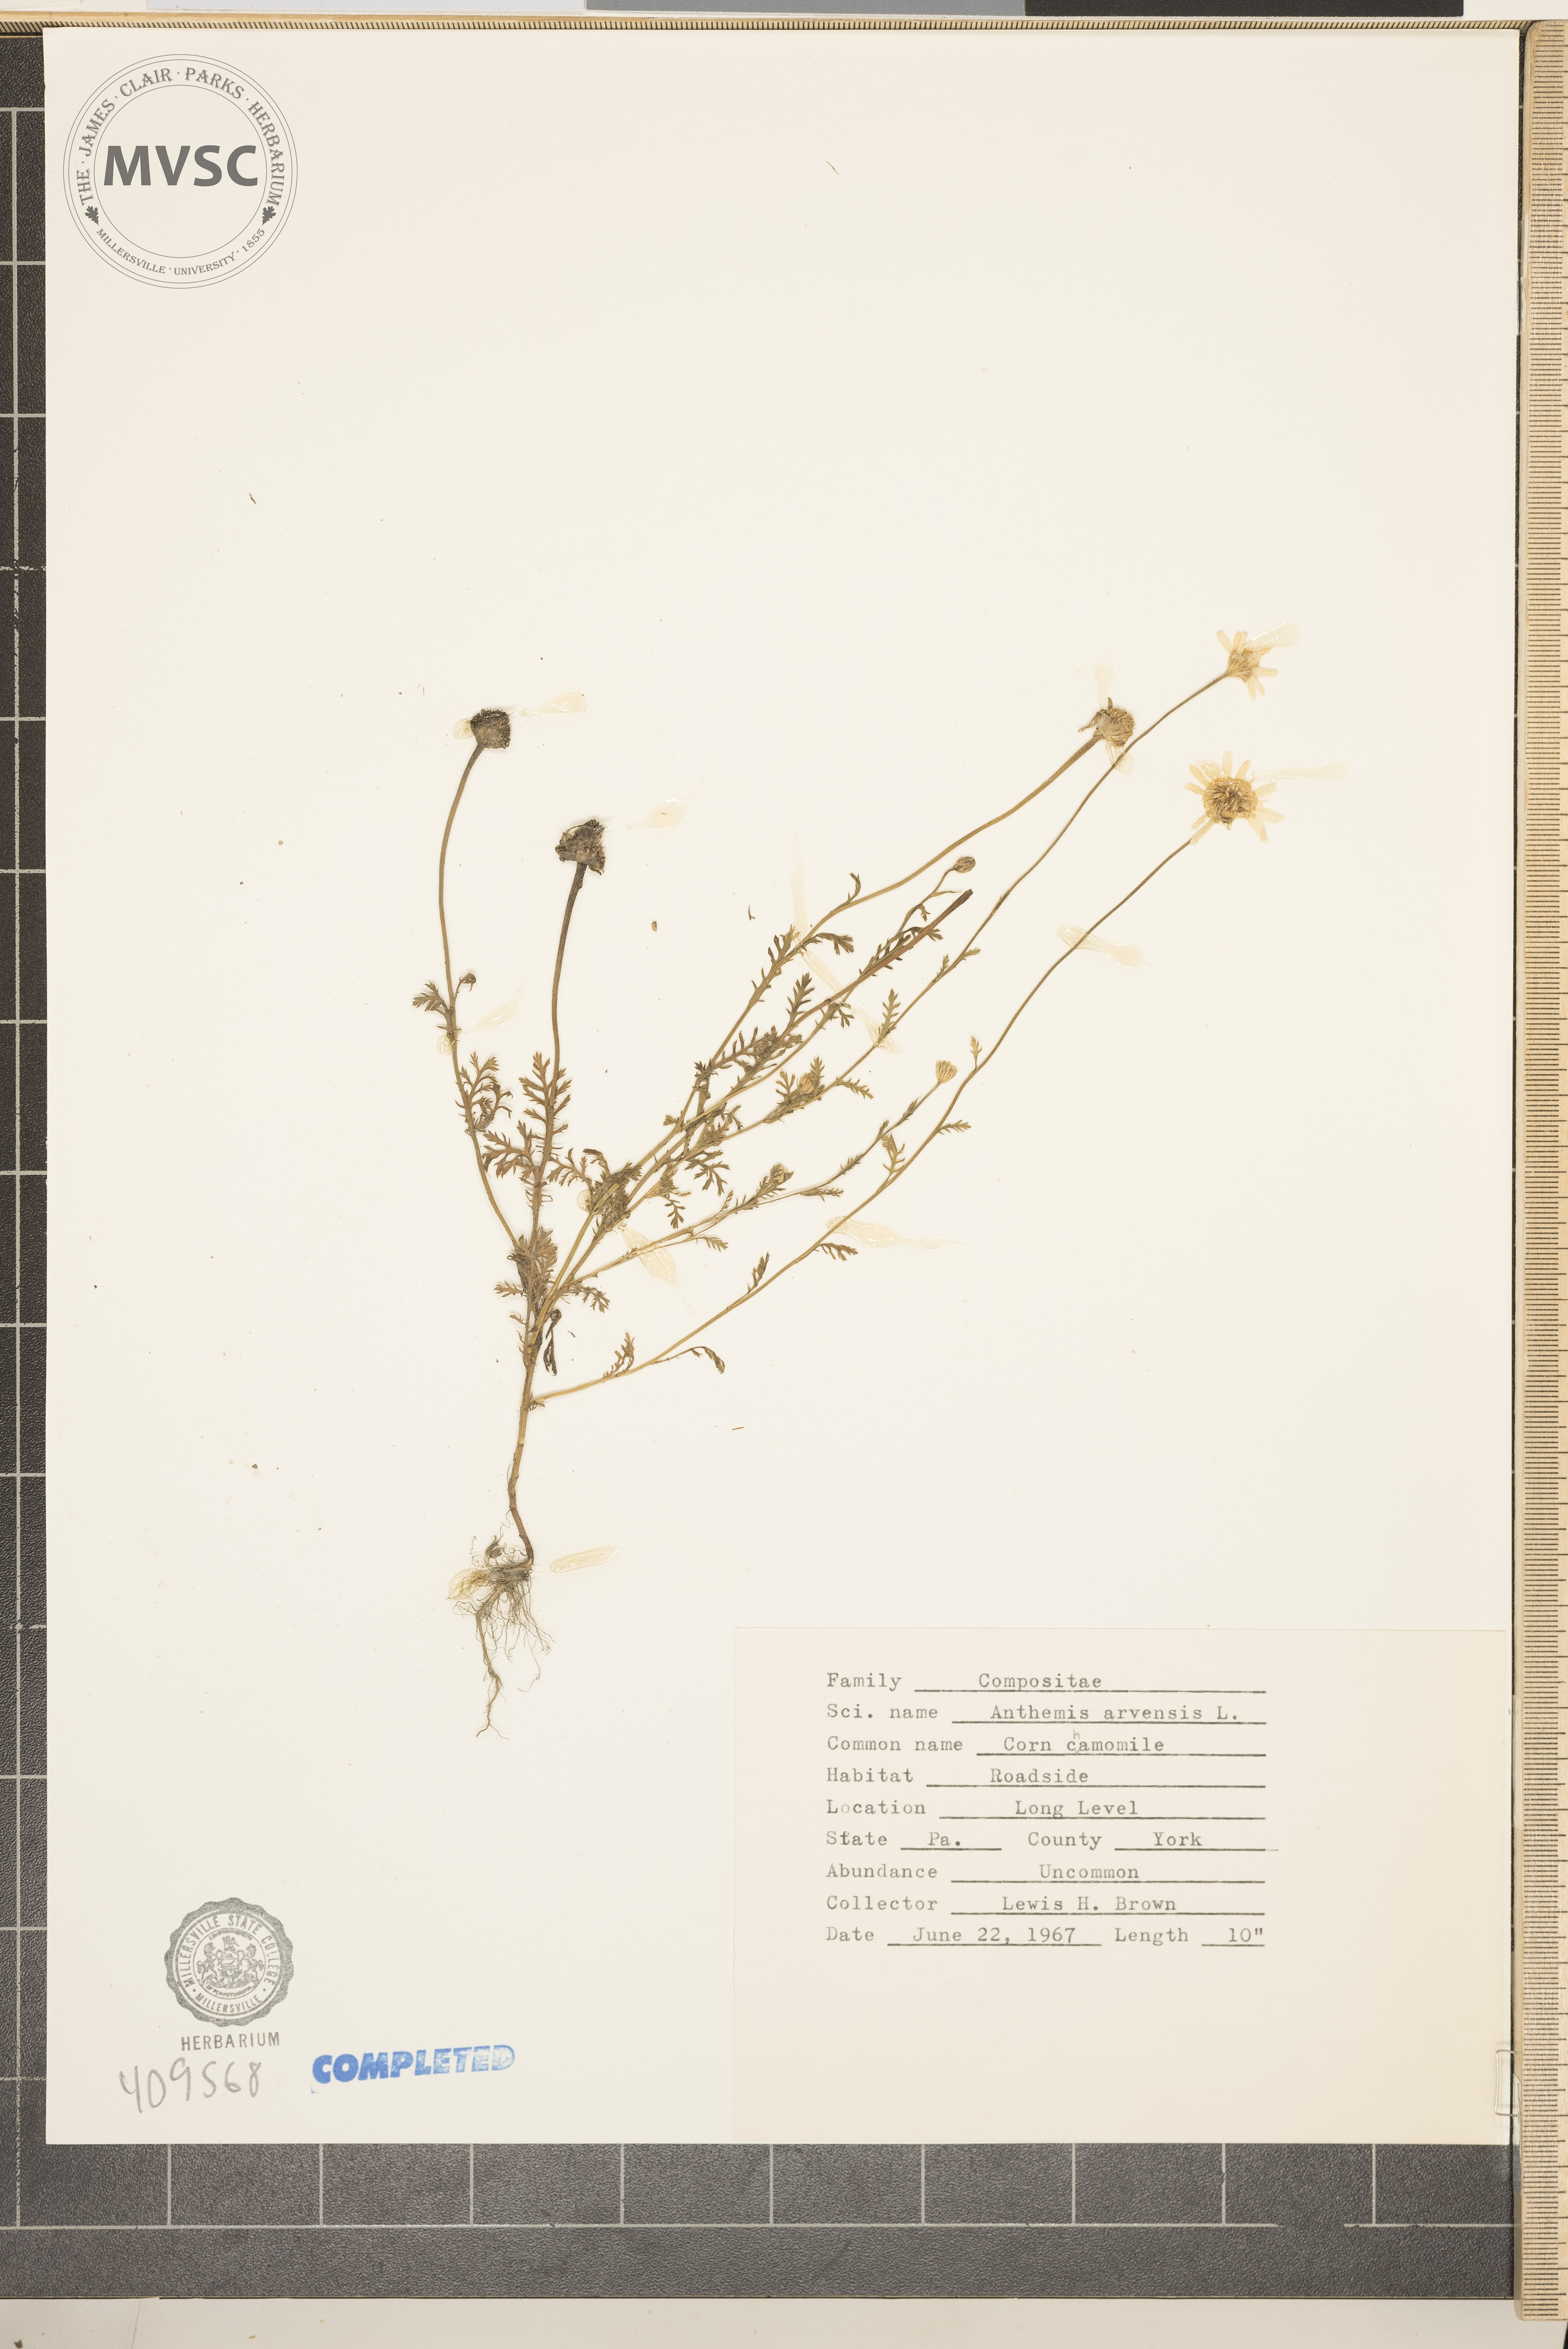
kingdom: Plantae
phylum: Tracheophyta
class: Magnoliopsida
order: Asterales
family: Asteraceae
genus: Anthemis
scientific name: Anthemis arvensis
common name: Corn chamomile
